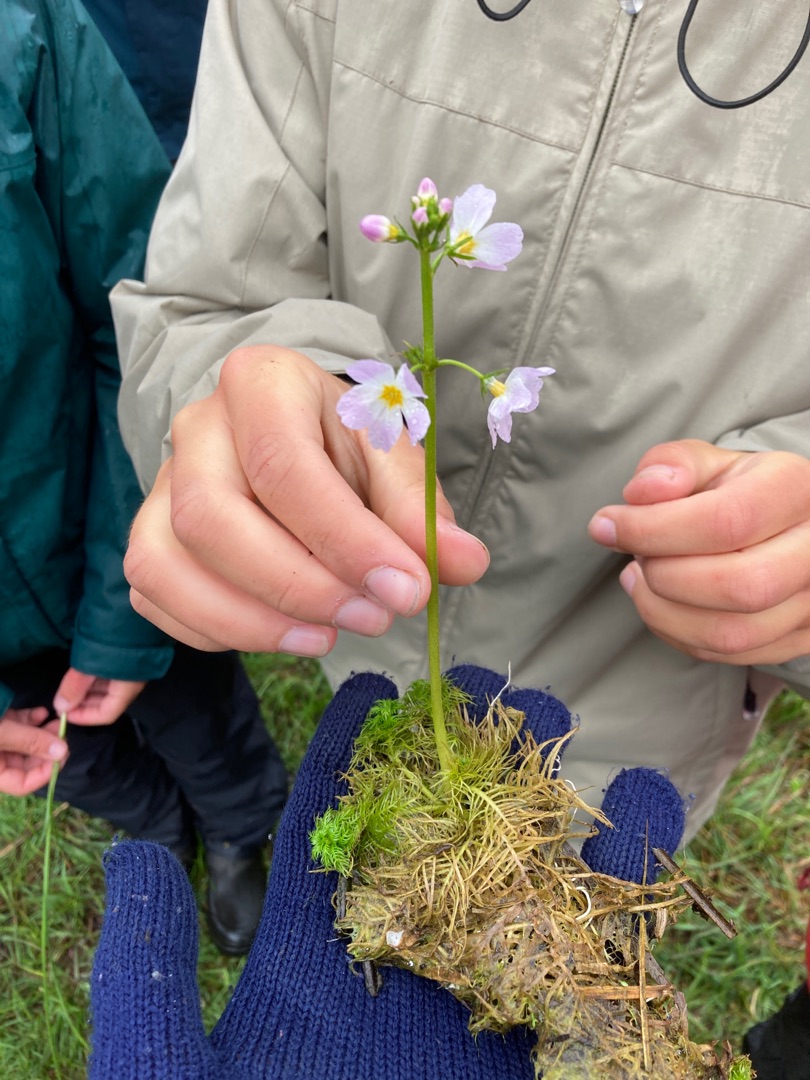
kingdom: Plantae
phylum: Tracheophyta
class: Magnoliopsida
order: Ericales
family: Primulaceae
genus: Hottonia
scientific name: Hottonia palustris
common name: Vandrøllike
